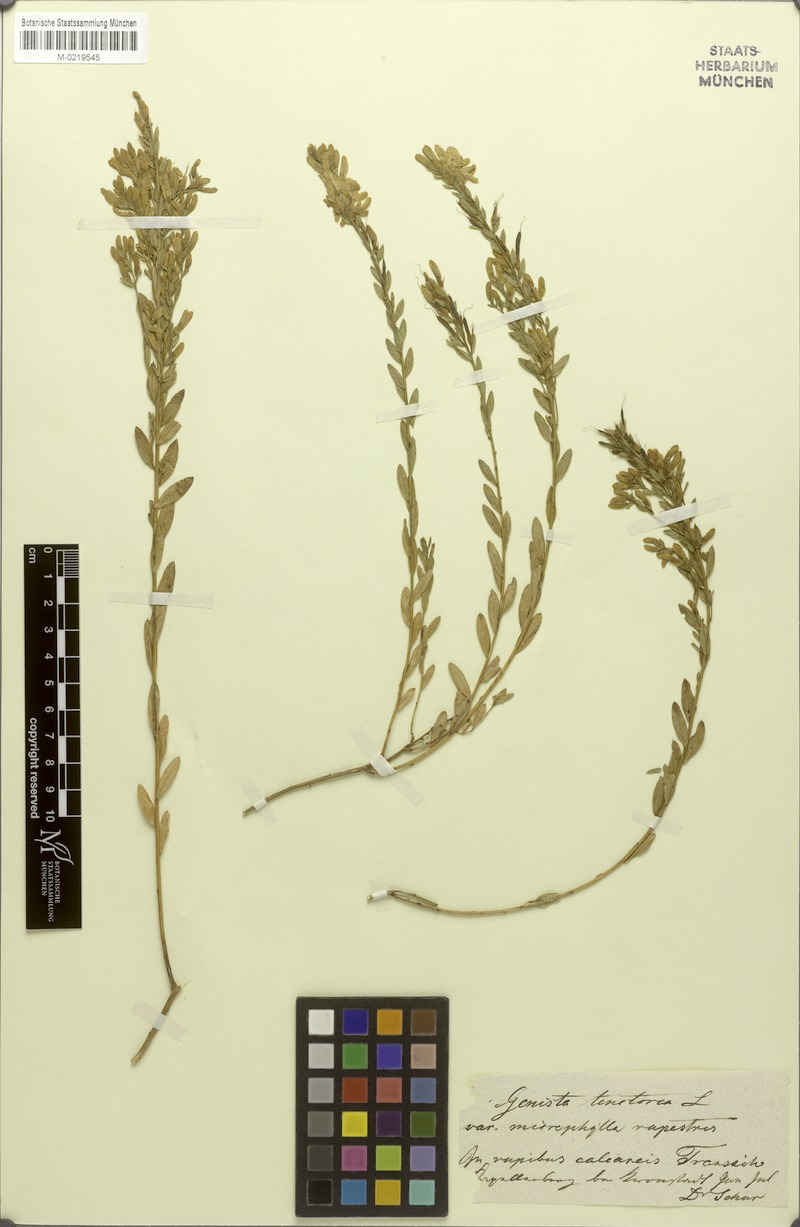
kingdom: Plantae
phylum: Tracheophyta
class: Magnoliopsida
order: Fabales
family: Fabaceae
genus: Genista
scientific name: Genista tinctoria
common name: Dyer's greenweed
